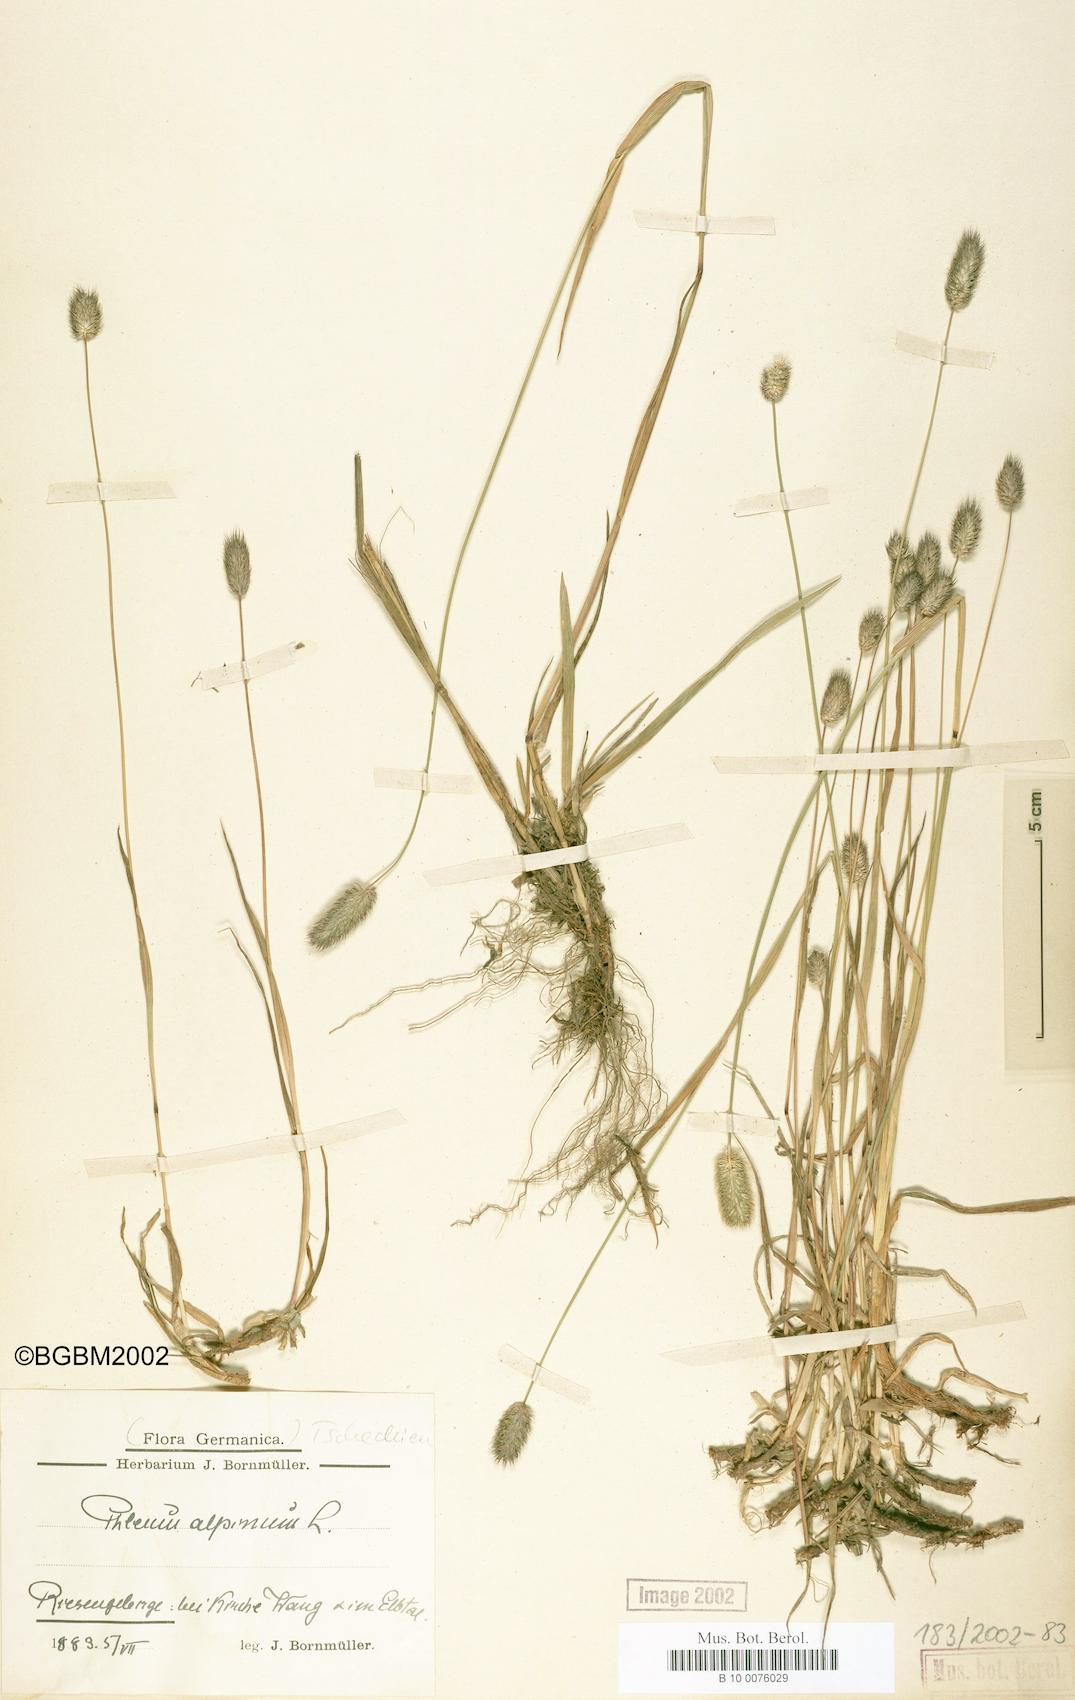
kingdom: Plantae
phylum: Tracheophyta
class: Liliopsida
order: Poales
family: Poaceae
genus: Phleum
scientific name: Phleum alpinum
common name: Alpine cat's-tail
